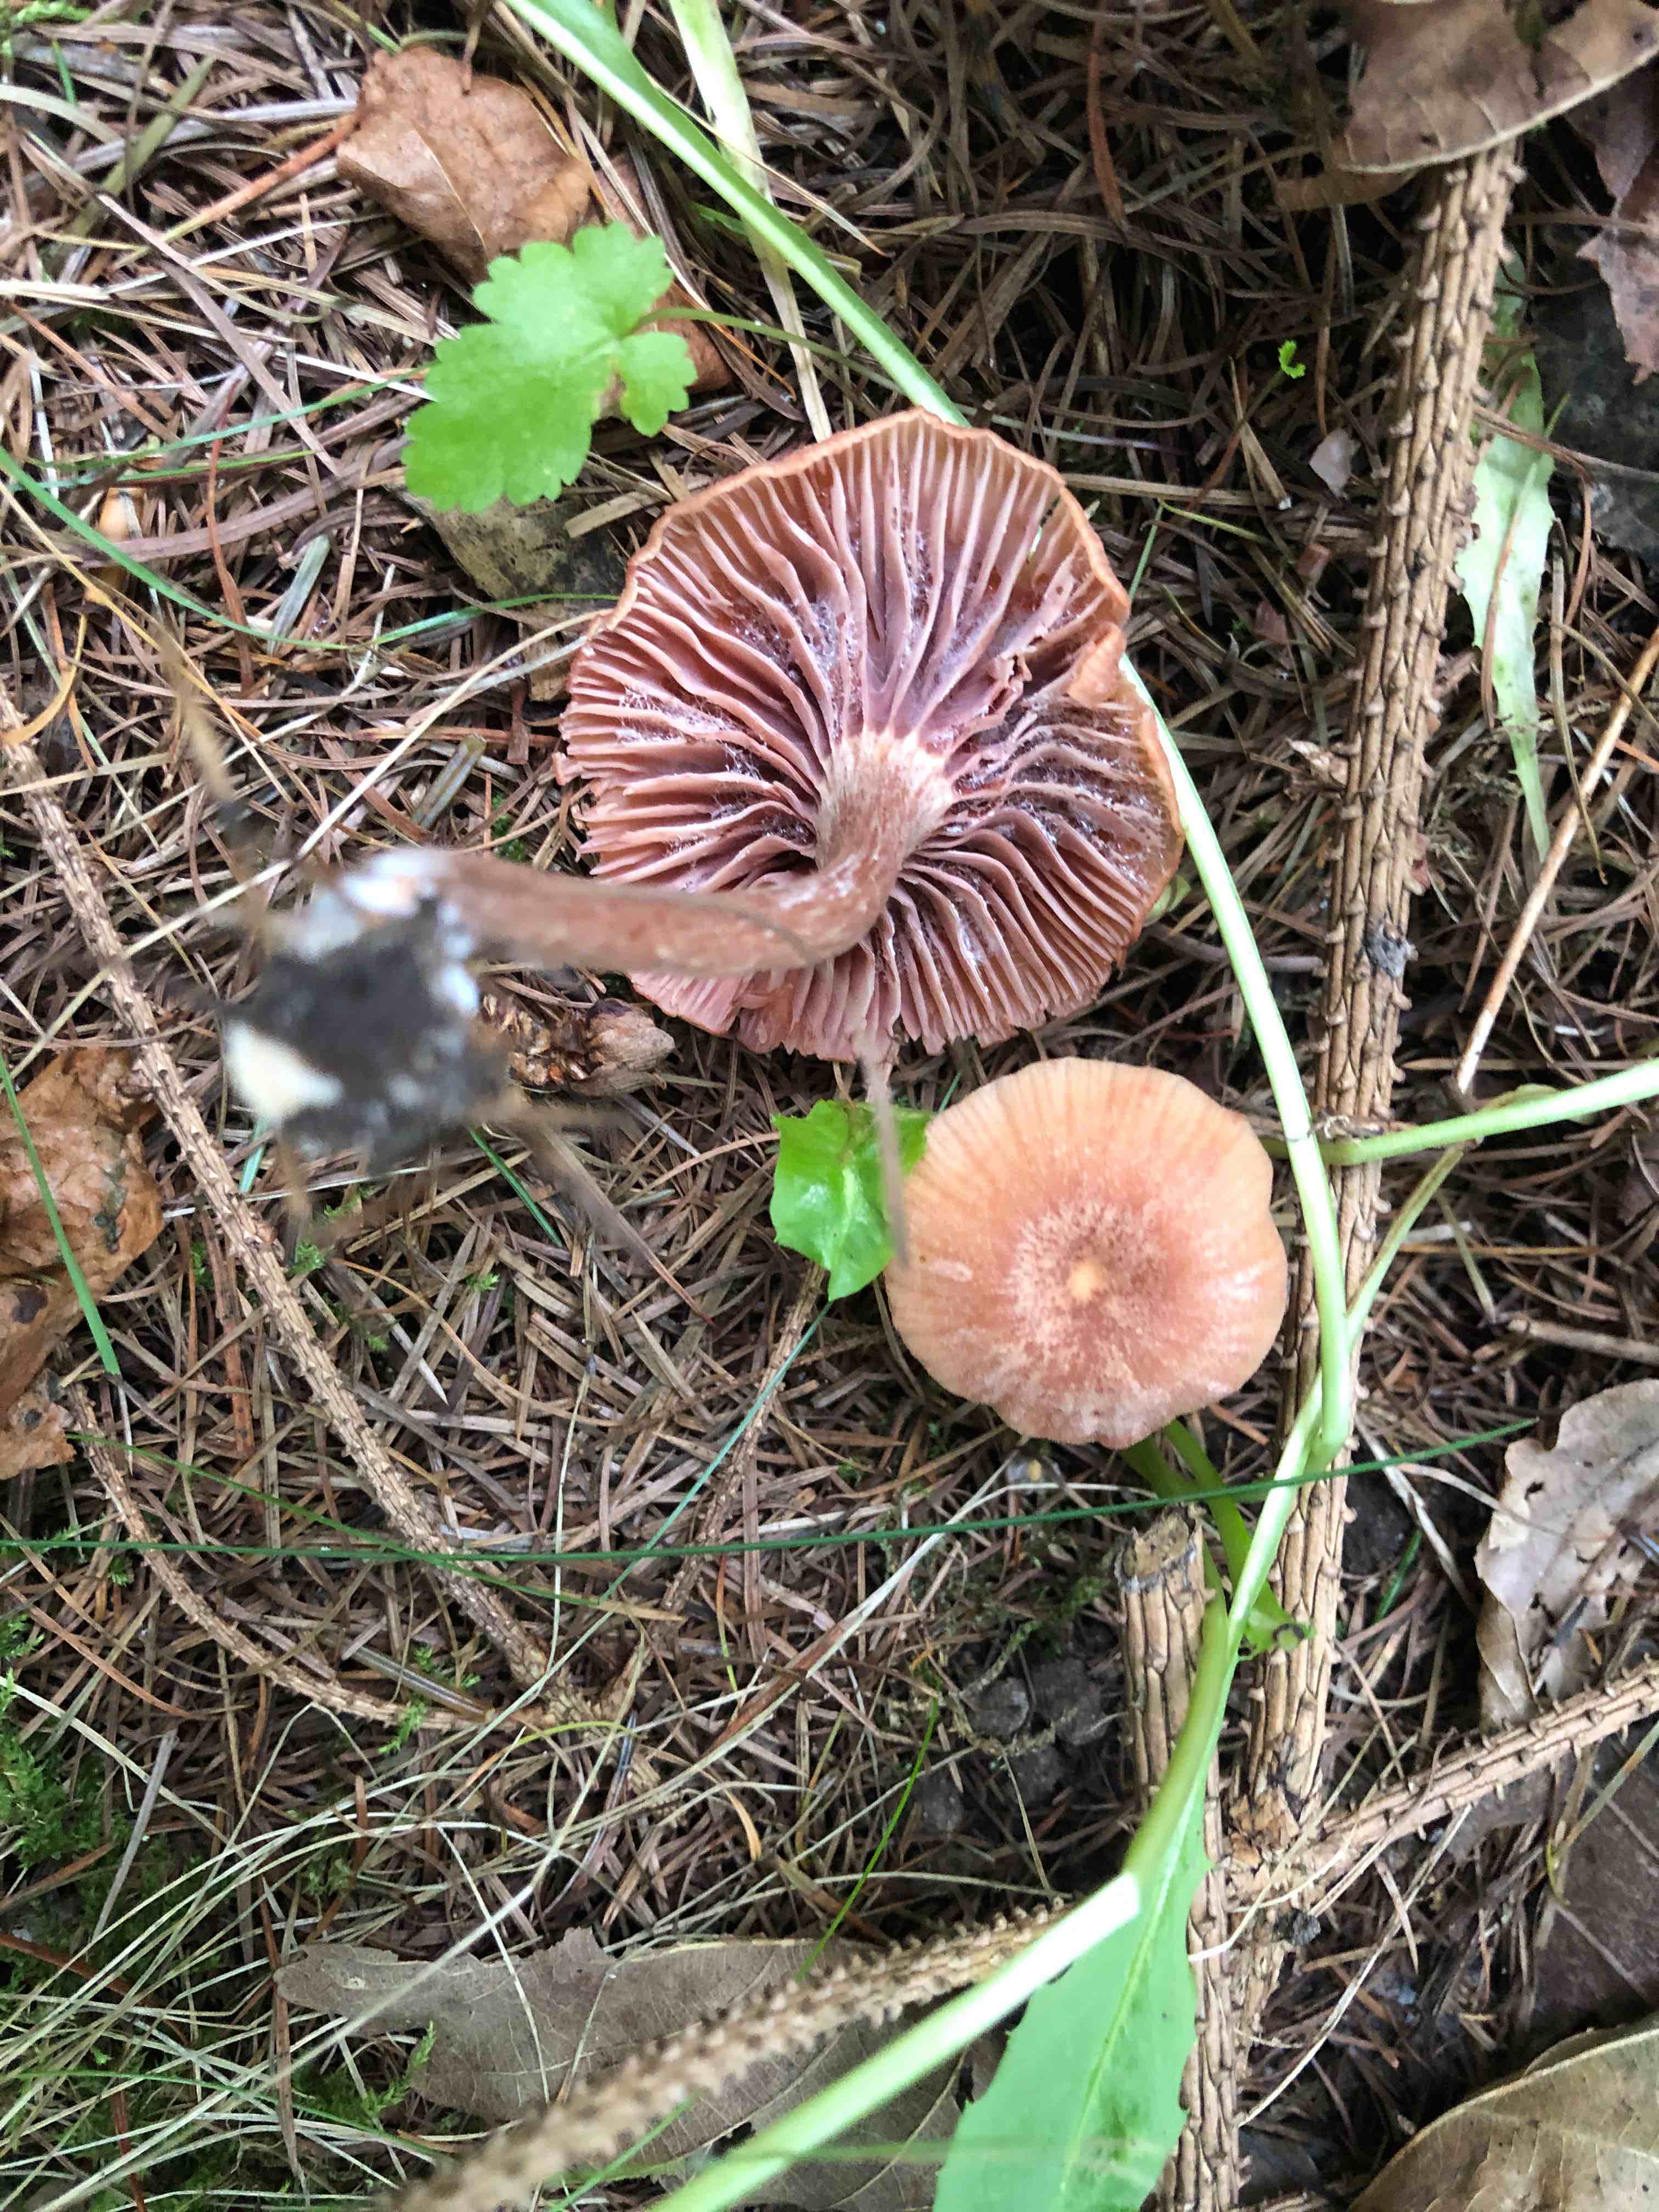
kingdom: Fungi
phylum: Basidiomycota
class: Agaricomycetes
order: Agaricales
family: Hydnangiaceae
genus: Laccaria
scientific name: Laccaria laccata
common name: rød ametysthat
